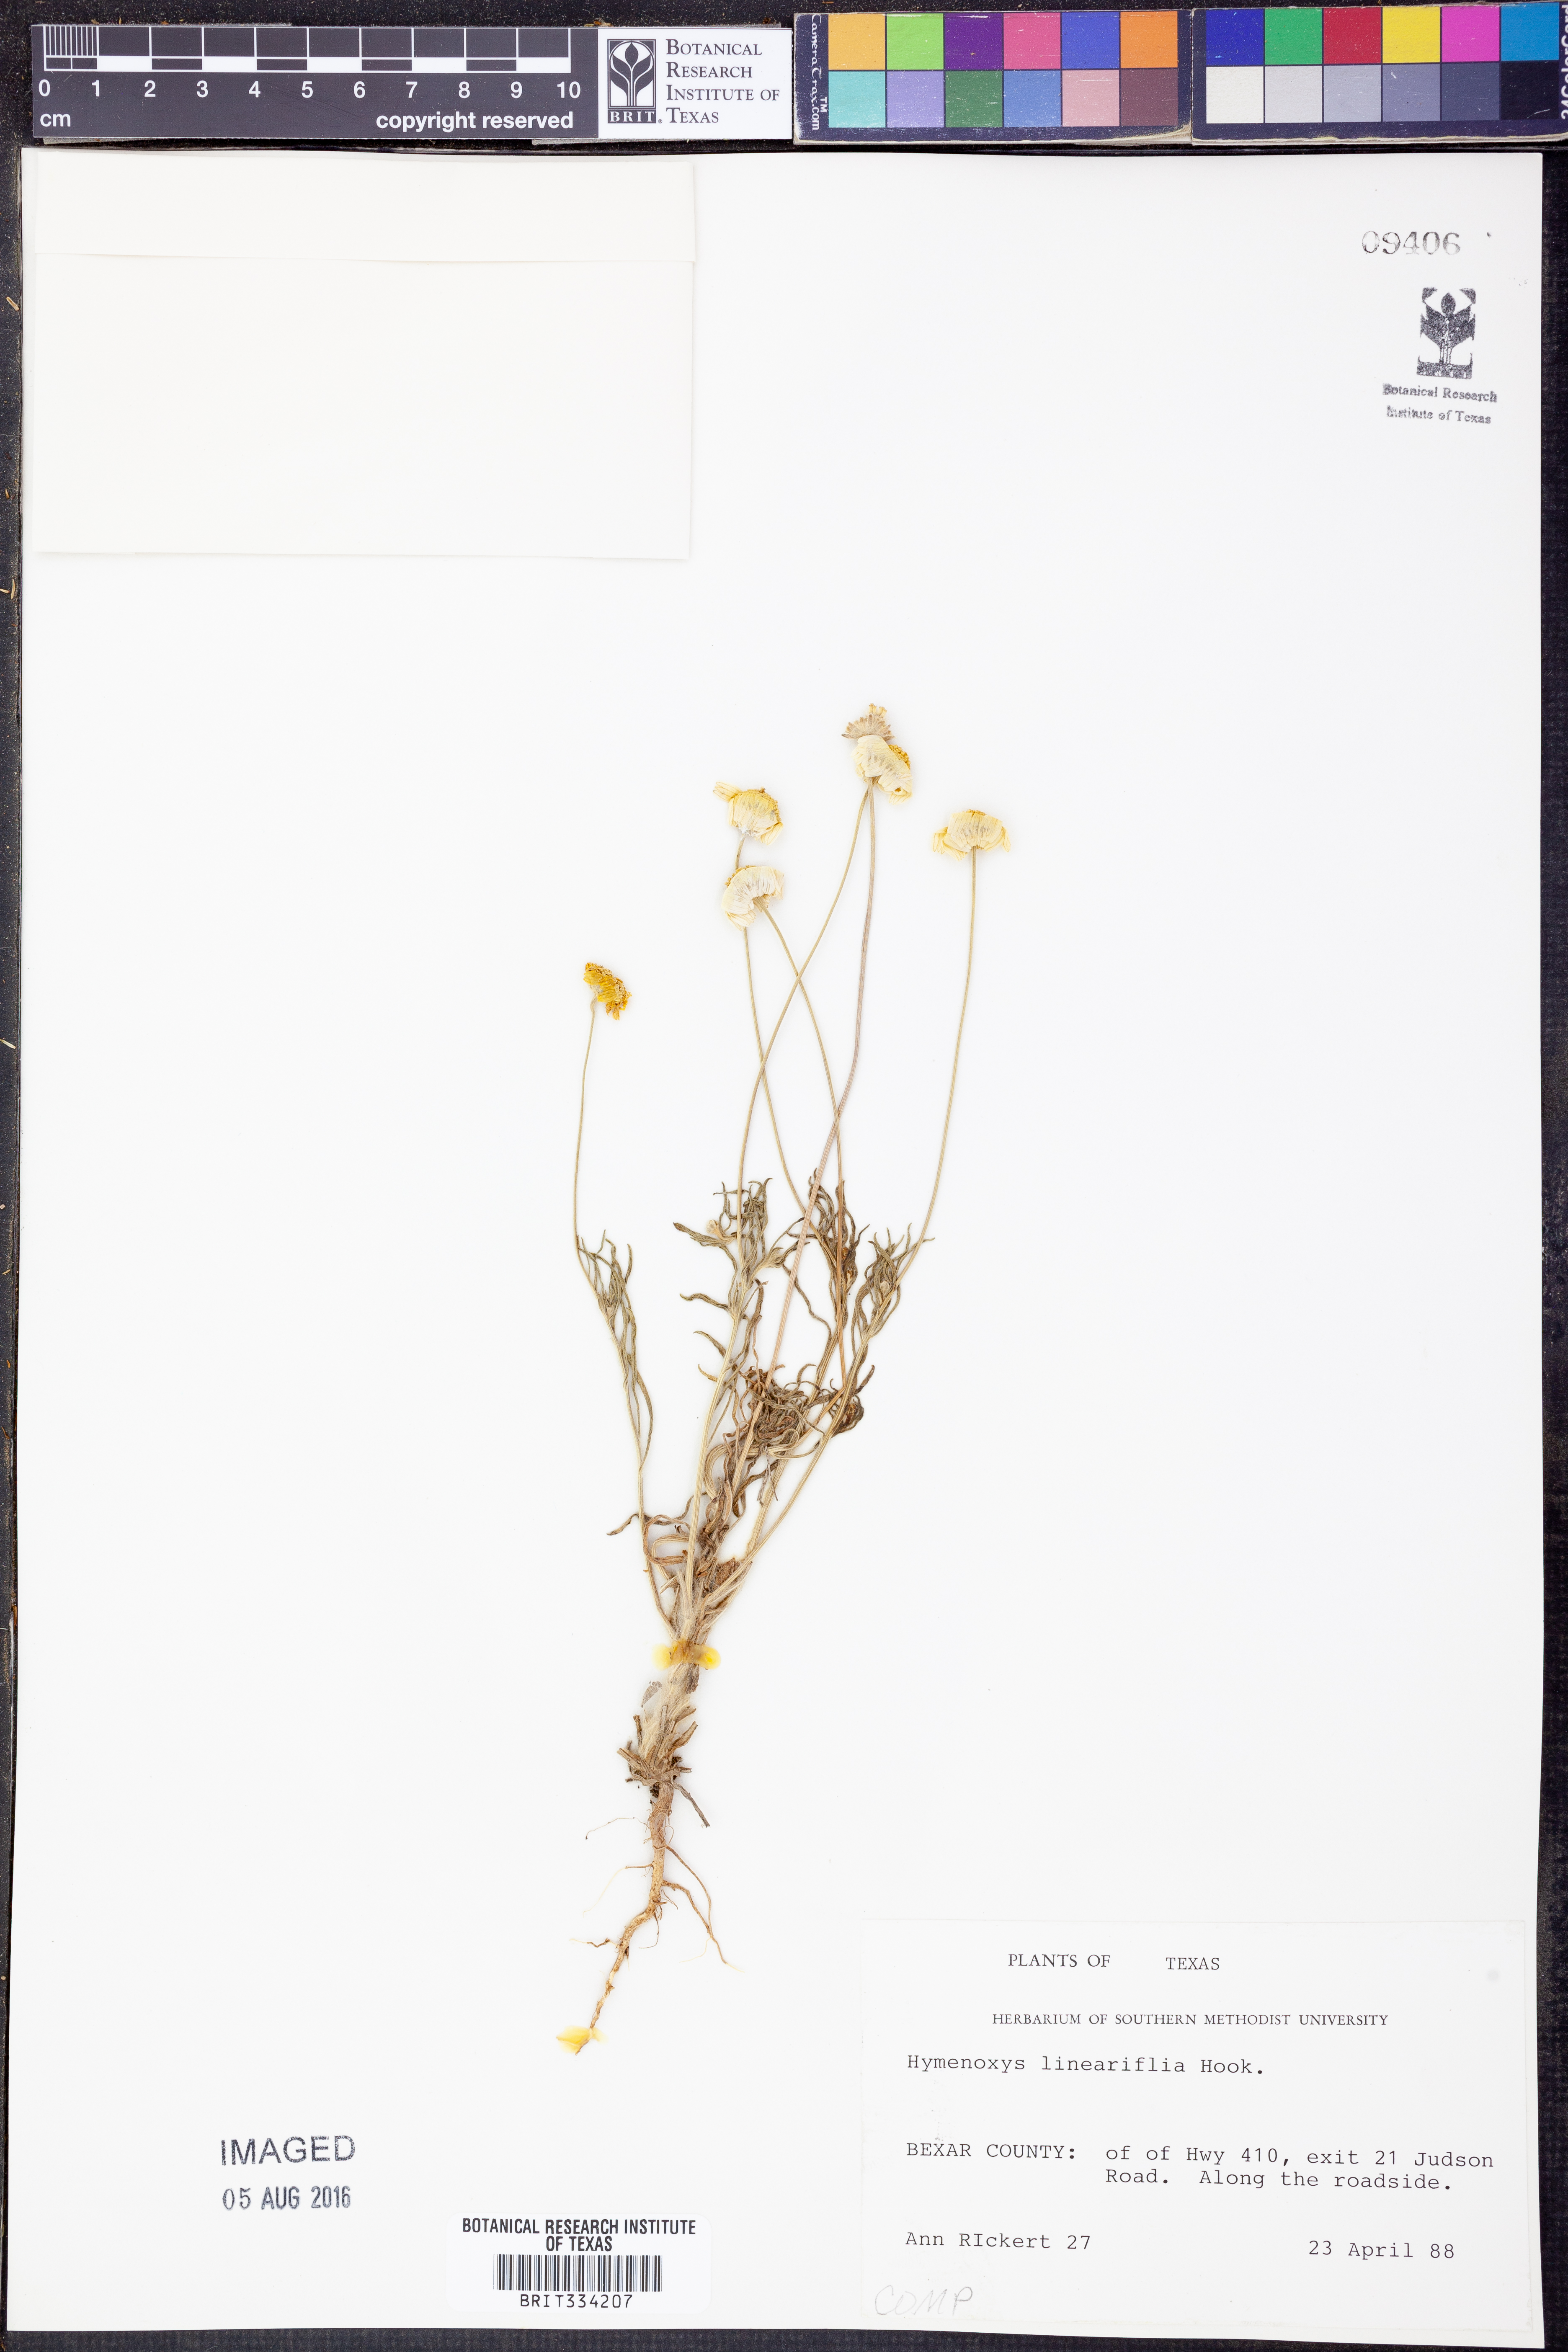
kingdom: Plantae
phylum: Tracheophyta
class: Magnoliopsida
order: Asterales
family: Asteraceae
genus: Tetraneuris
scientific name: Tetraneuris linearifolia
